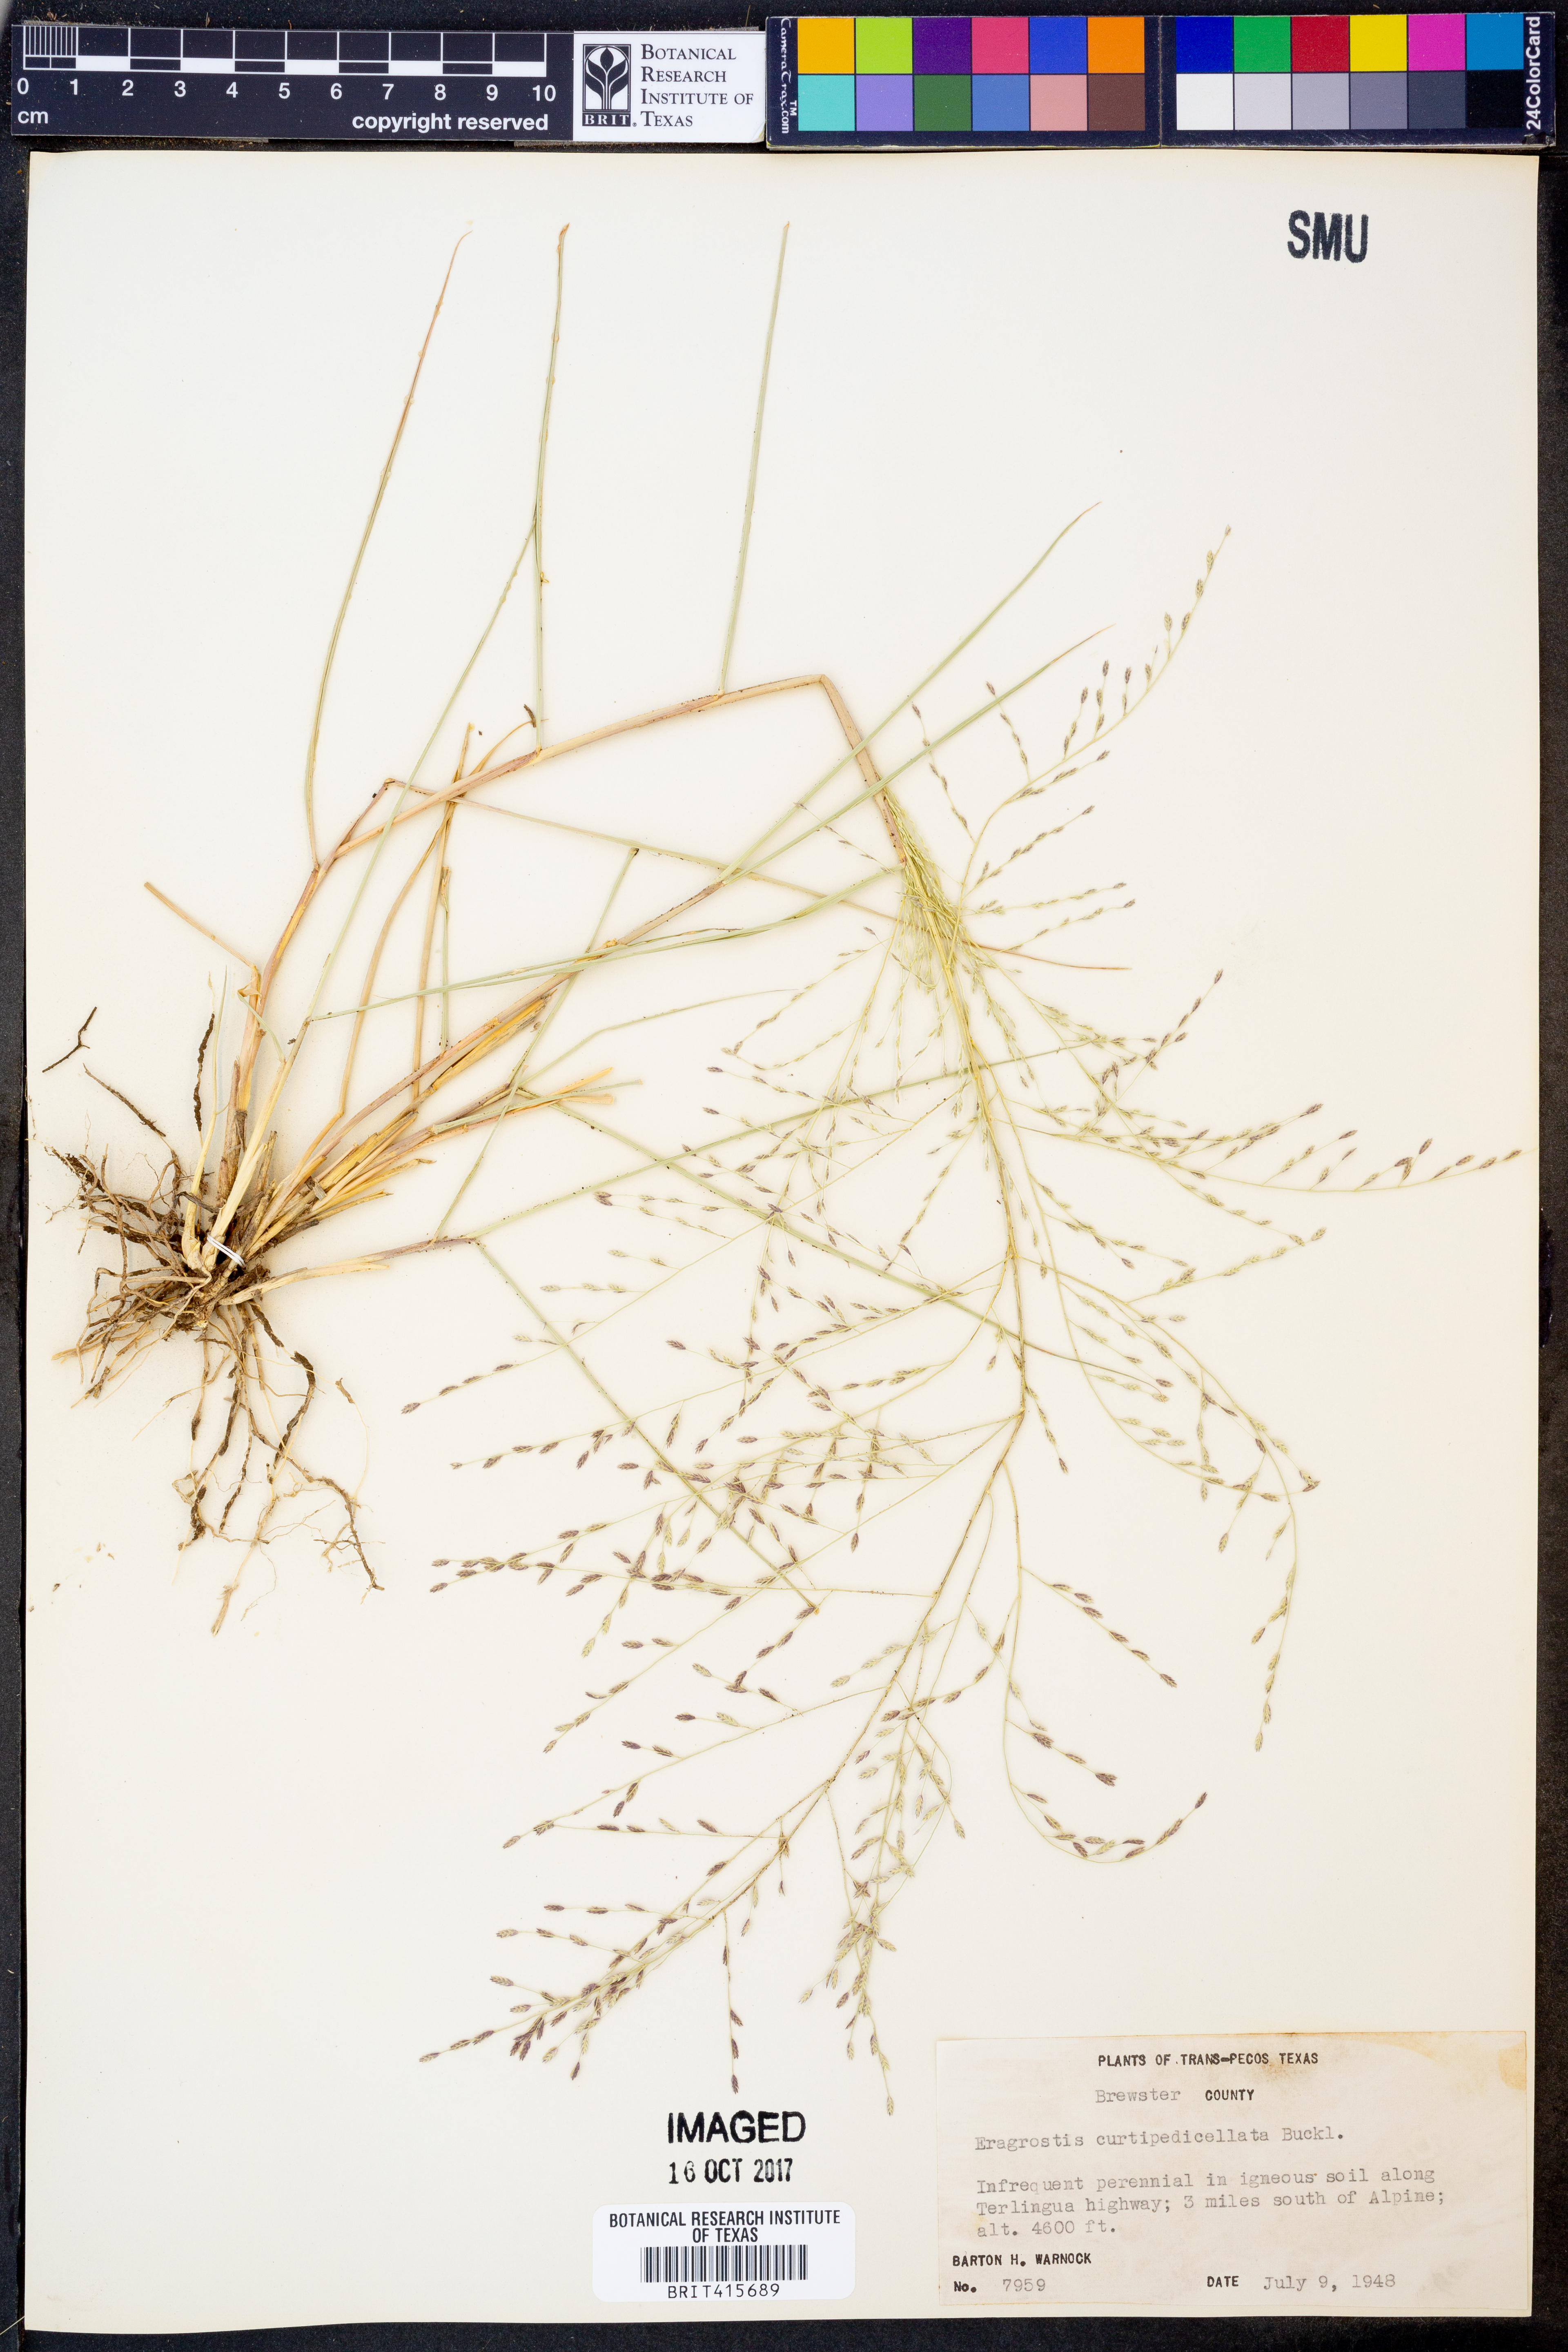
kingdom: Plantae
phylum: Tracheophyta
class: Liliopsida
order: Poales
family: Poaceae
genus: Eragrostis
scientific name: Eragrostis curtipedicellata
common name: Gummy love grass
